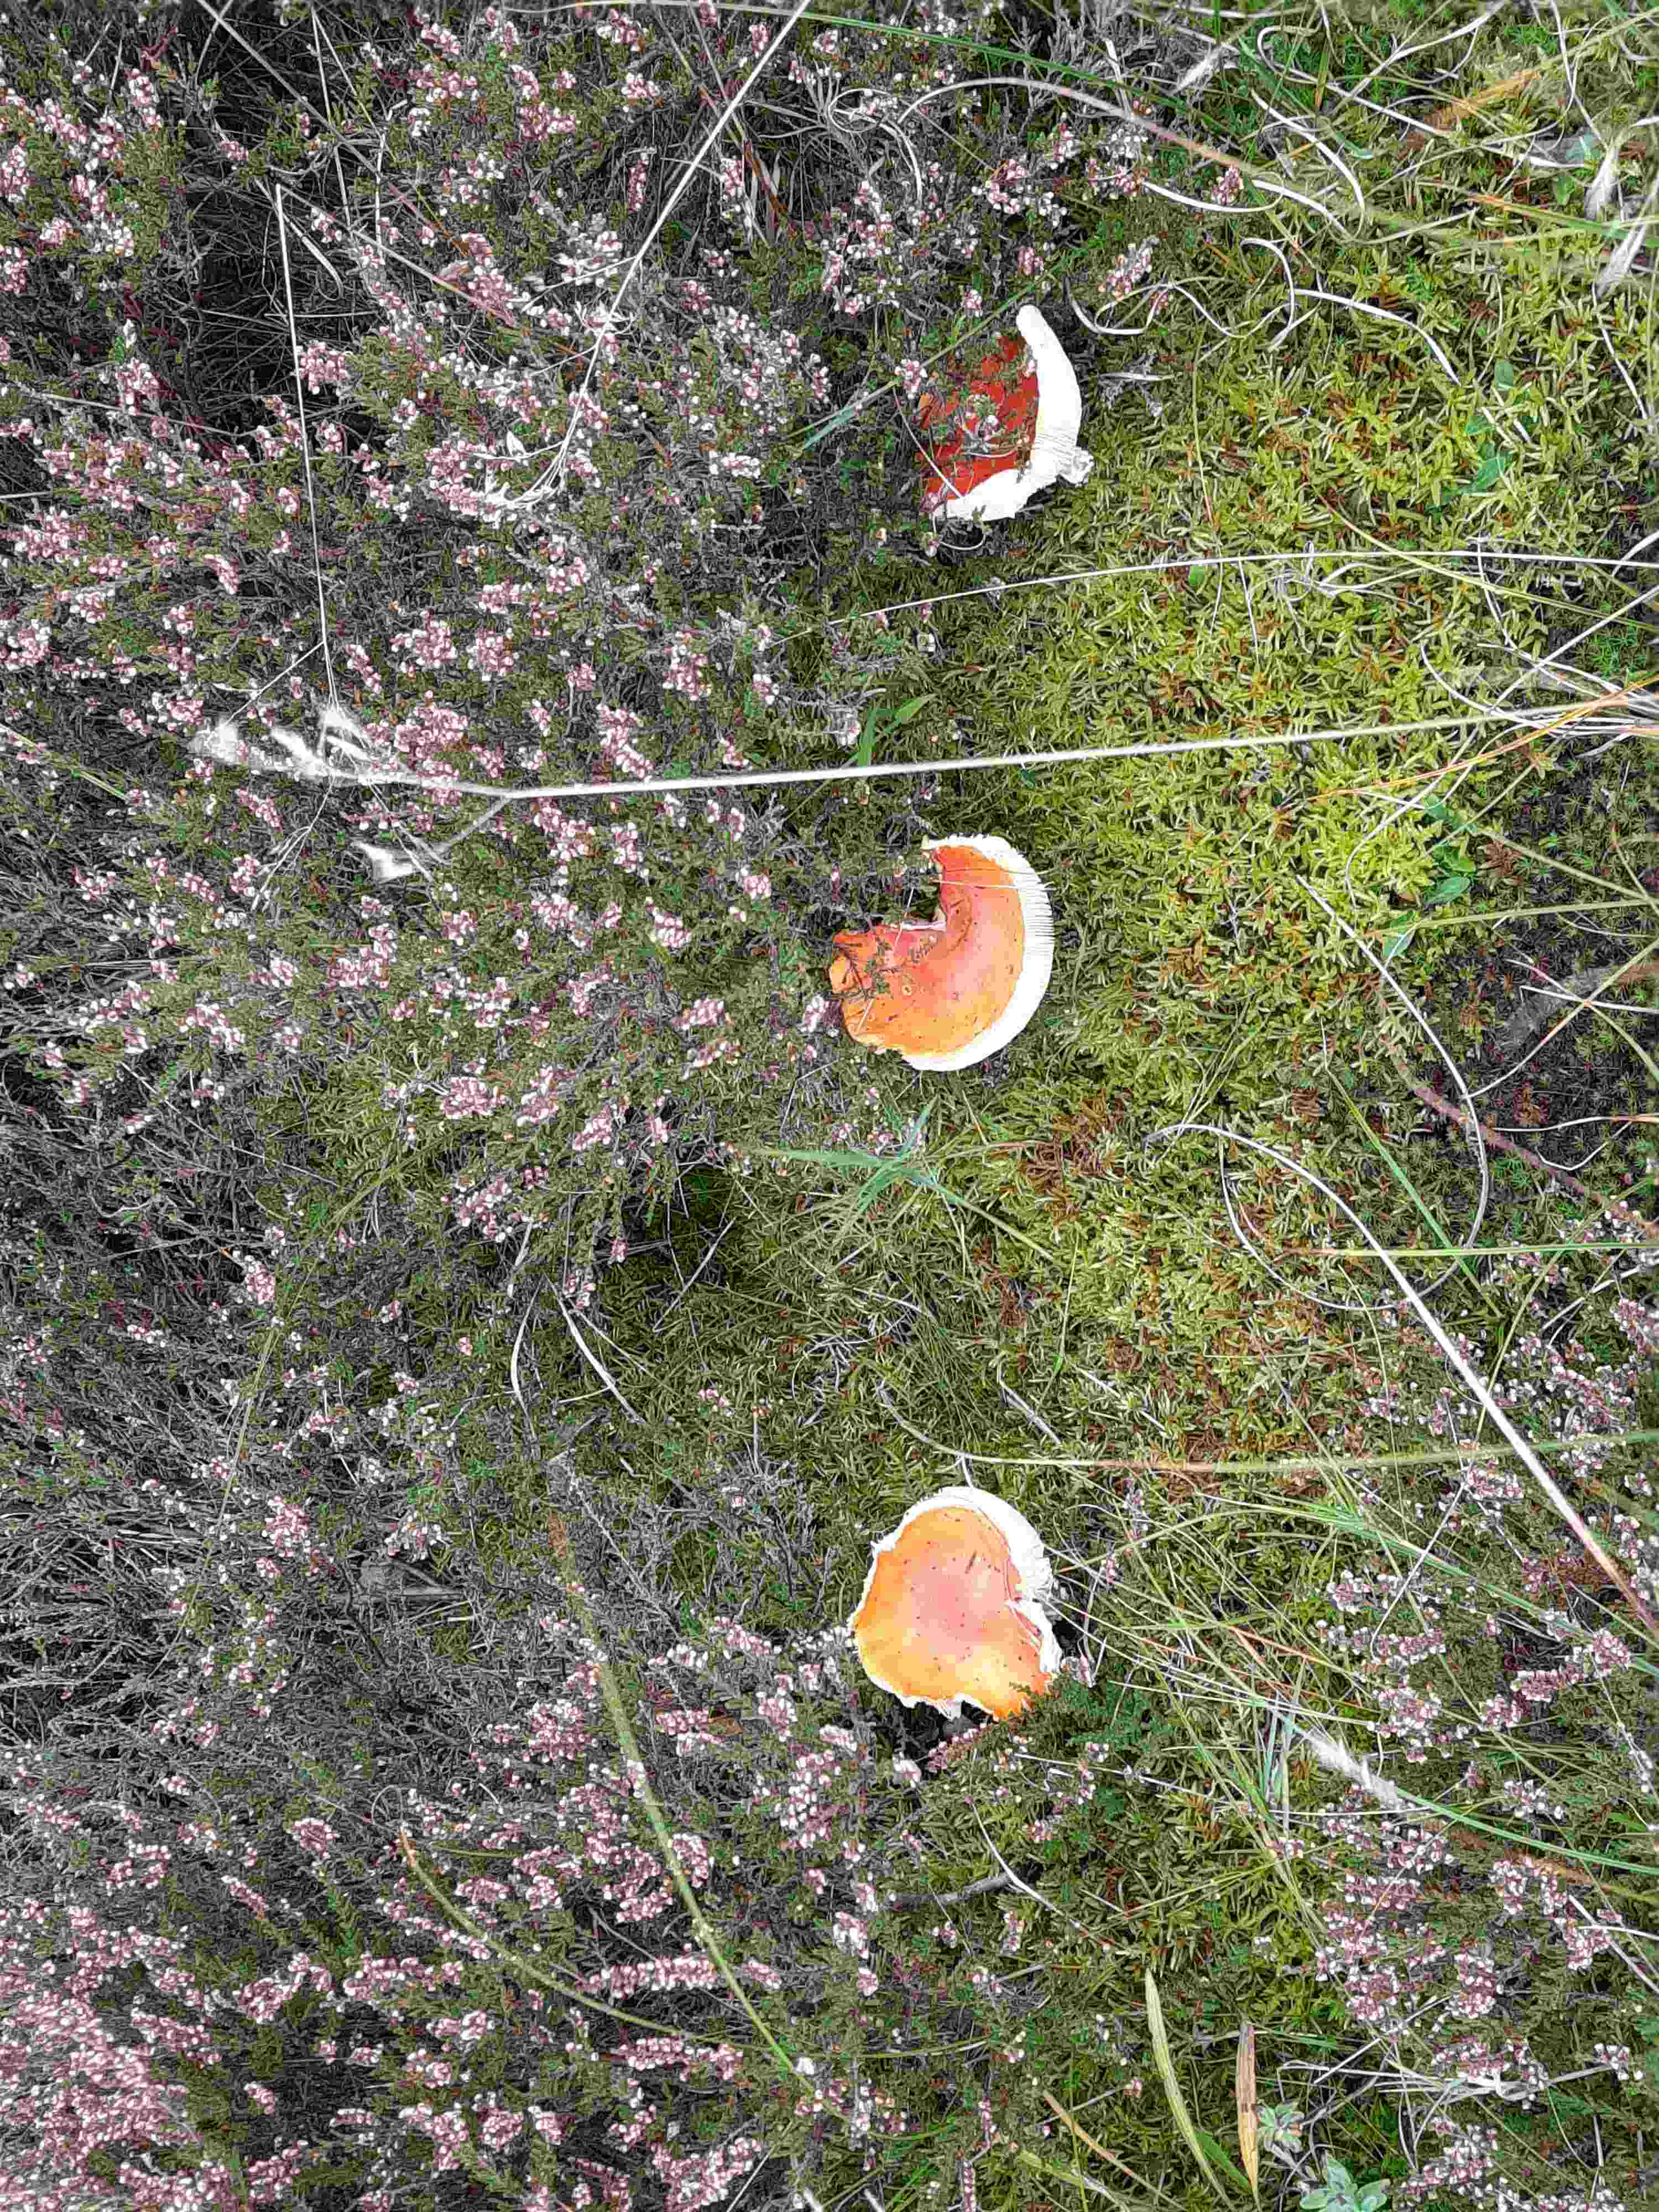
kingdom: Fungi
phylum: Basidiomycota
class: Agaricomycetes
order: Agaricales
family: Amanitaceae
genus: Amanita
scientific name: Amanita muscaria
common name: rød fluesvamp
